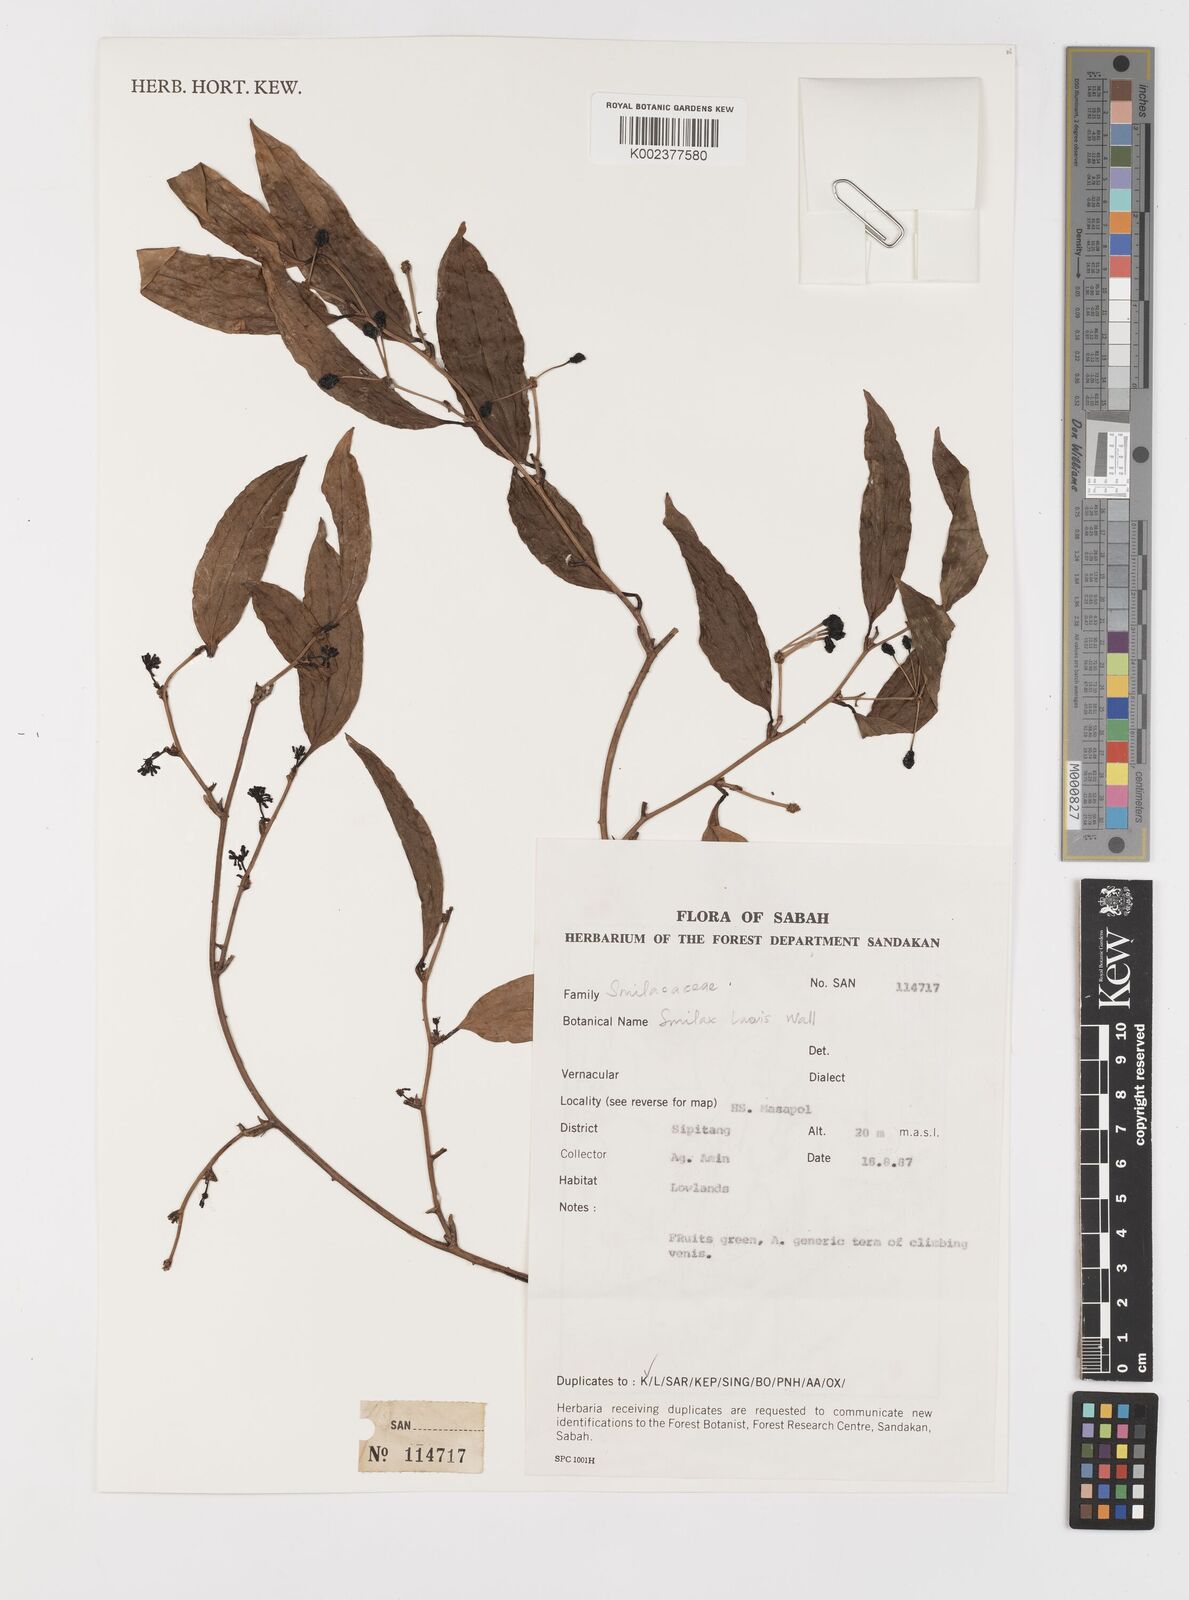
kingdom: Plantae
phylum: Tracheophyta
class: Liliopsida
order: Liliales
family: Smilacaceae
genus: Smilax
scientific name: Smilax laevis
